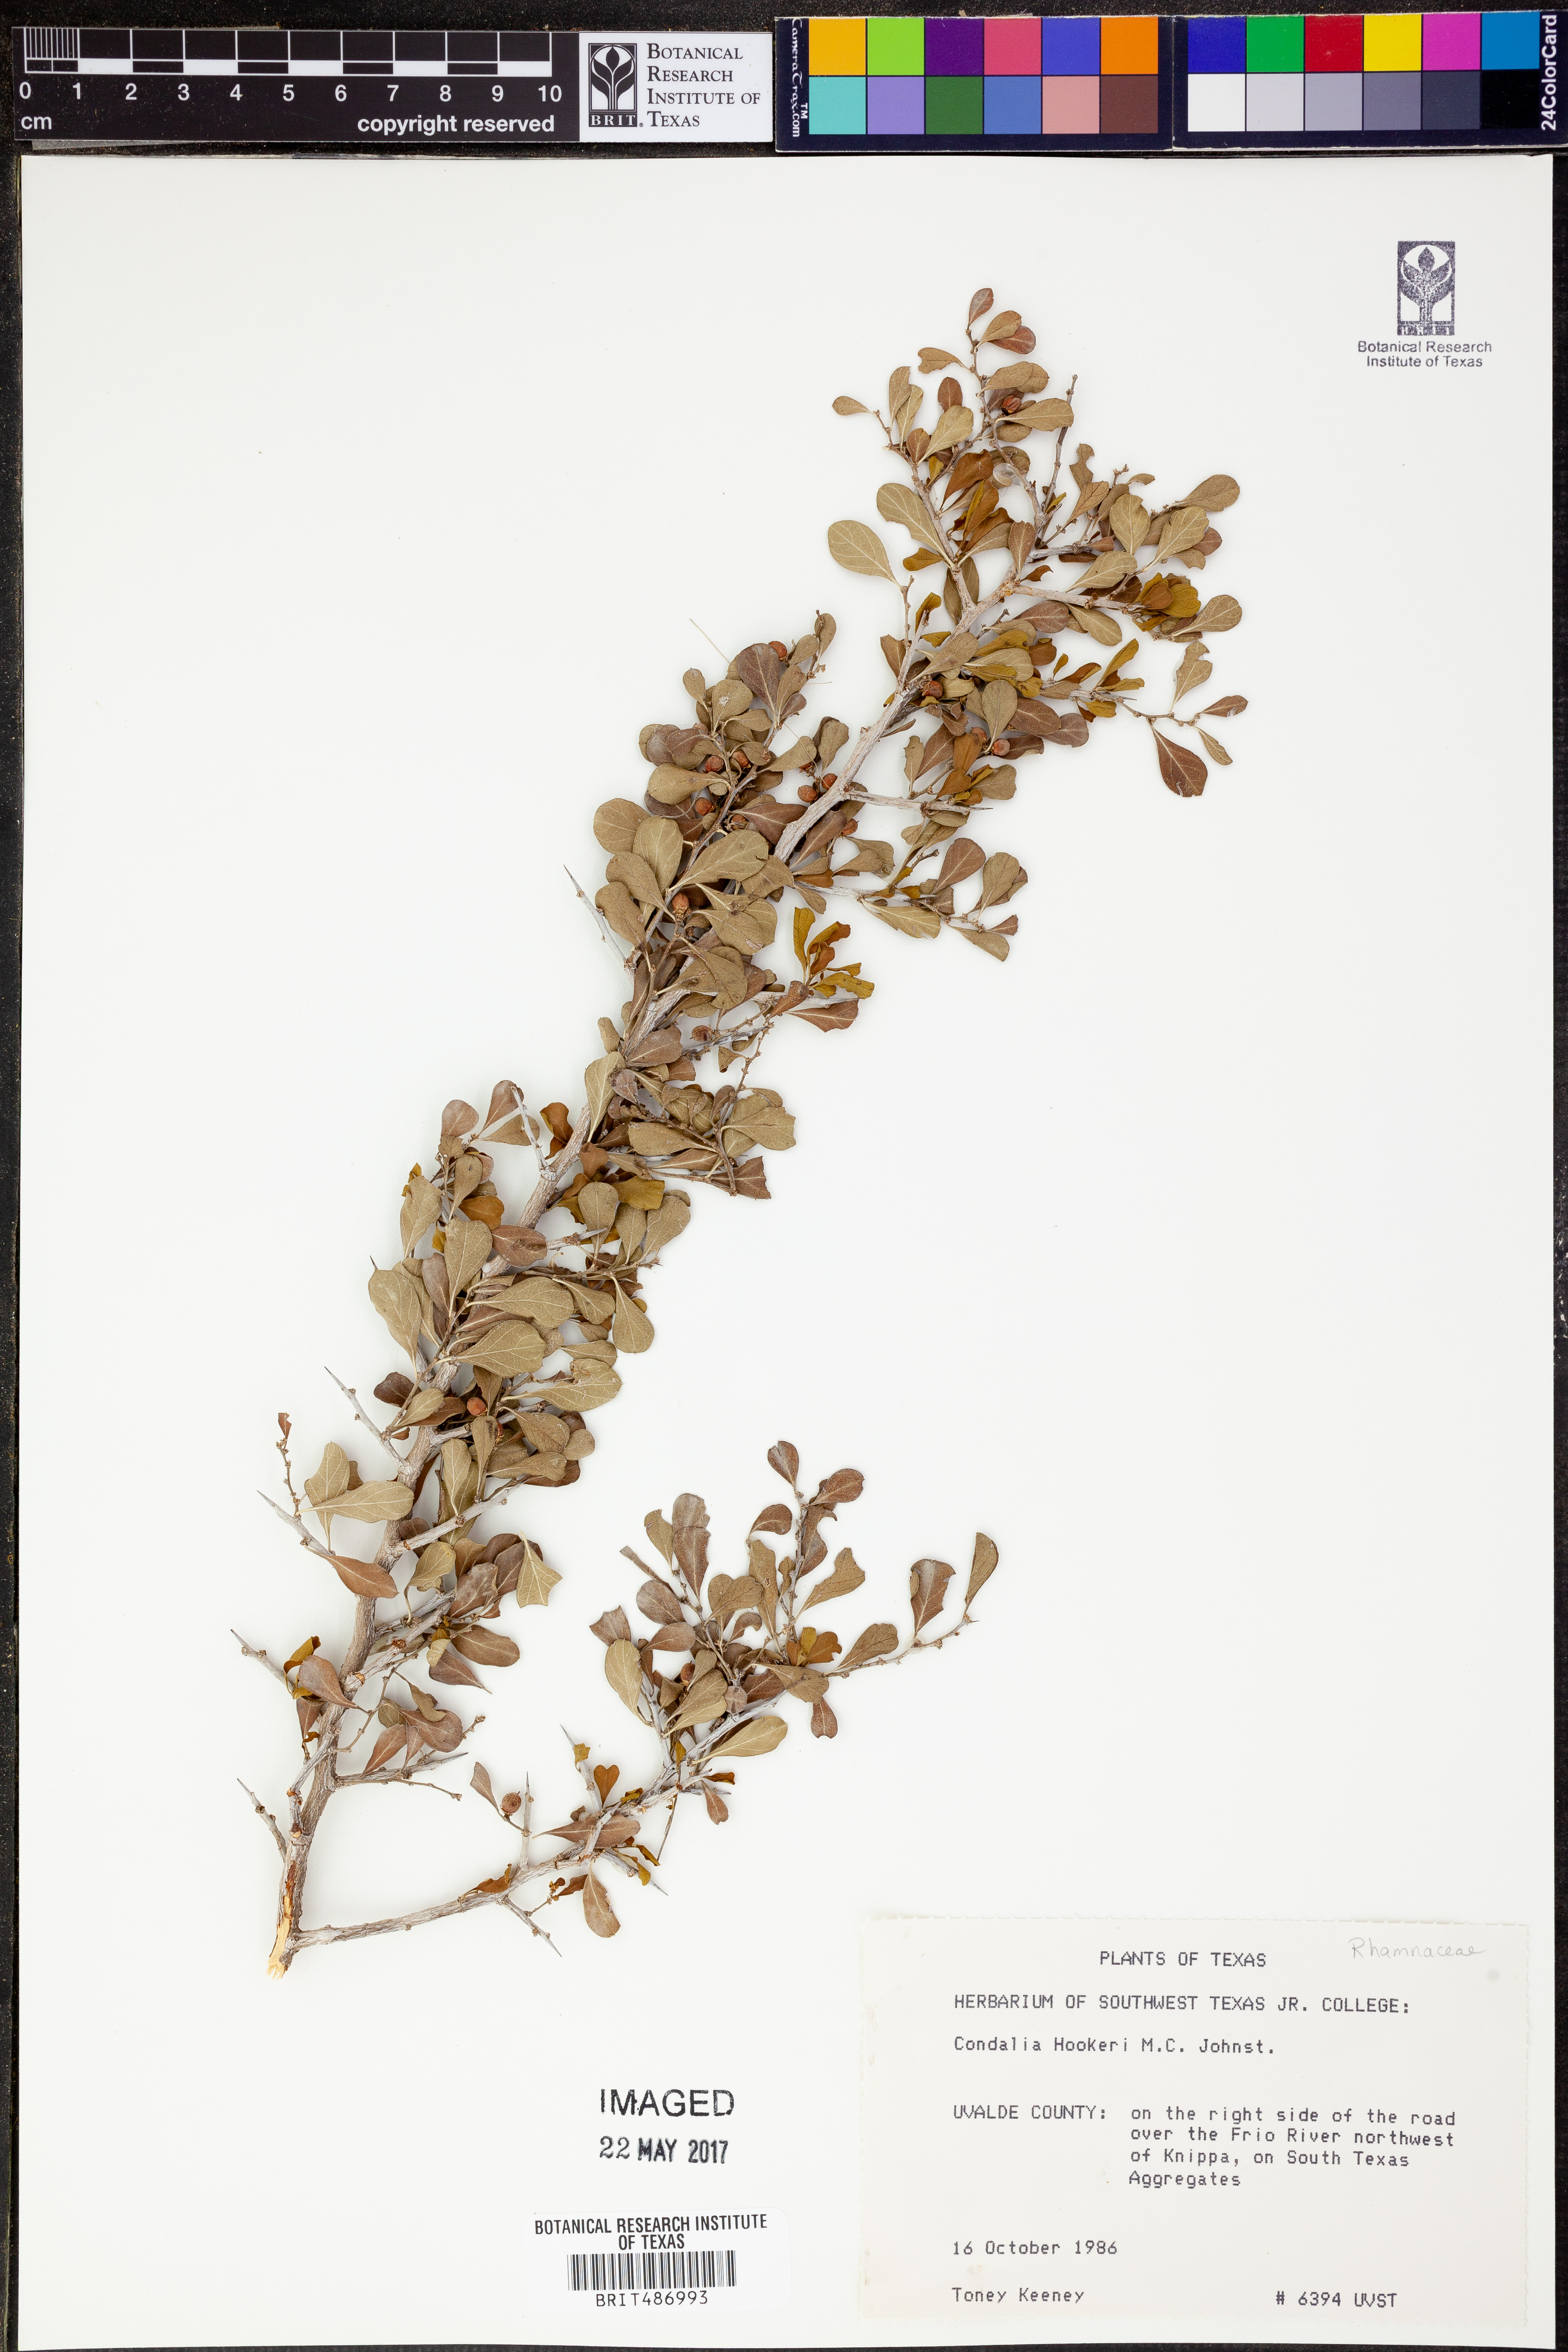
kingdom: Plantae
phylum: Tracheophyta
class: Magnoliopsida
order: Rosales
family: Rhamnaceae
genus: Condalia
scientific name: Condalia hookeri
